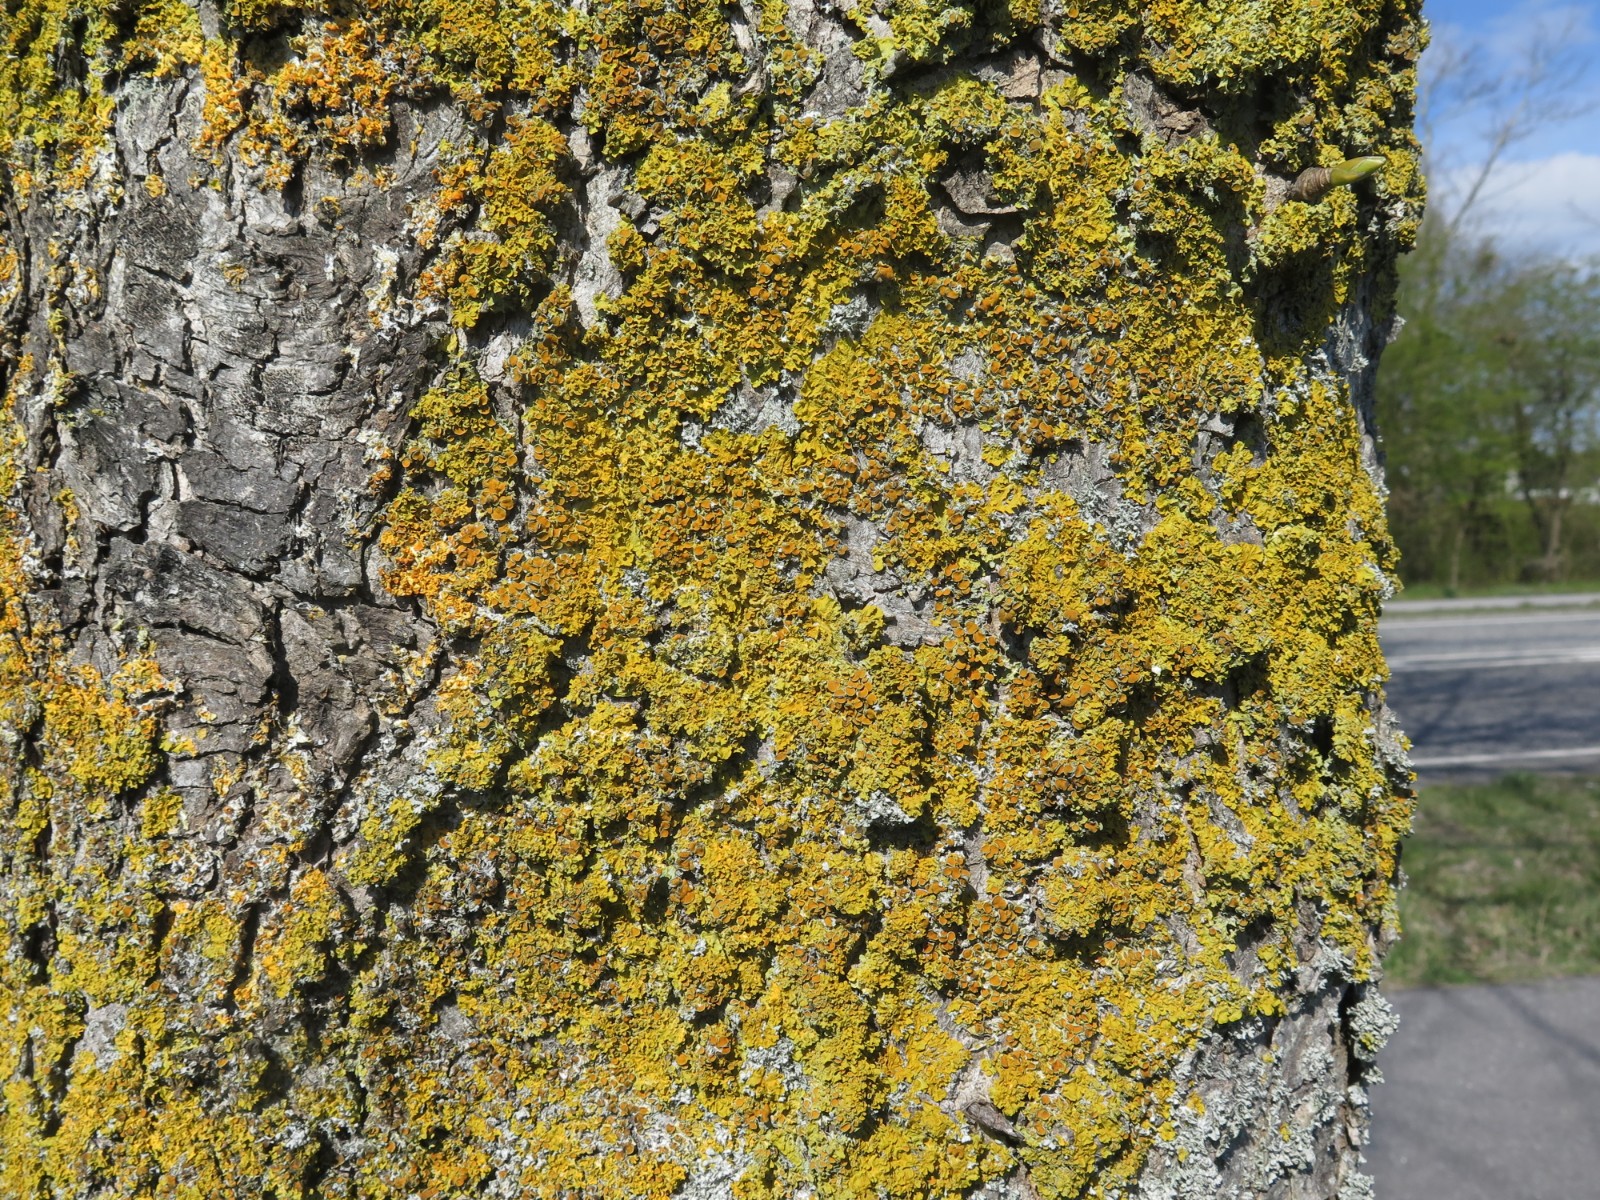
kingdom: Fungi
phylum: Ascomycota
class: Lecanoromycetes
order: Teloschistales
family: Teloschistaceae
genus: Xanthoria
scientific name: Xanthoria parietina
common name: almindelig væggelav
